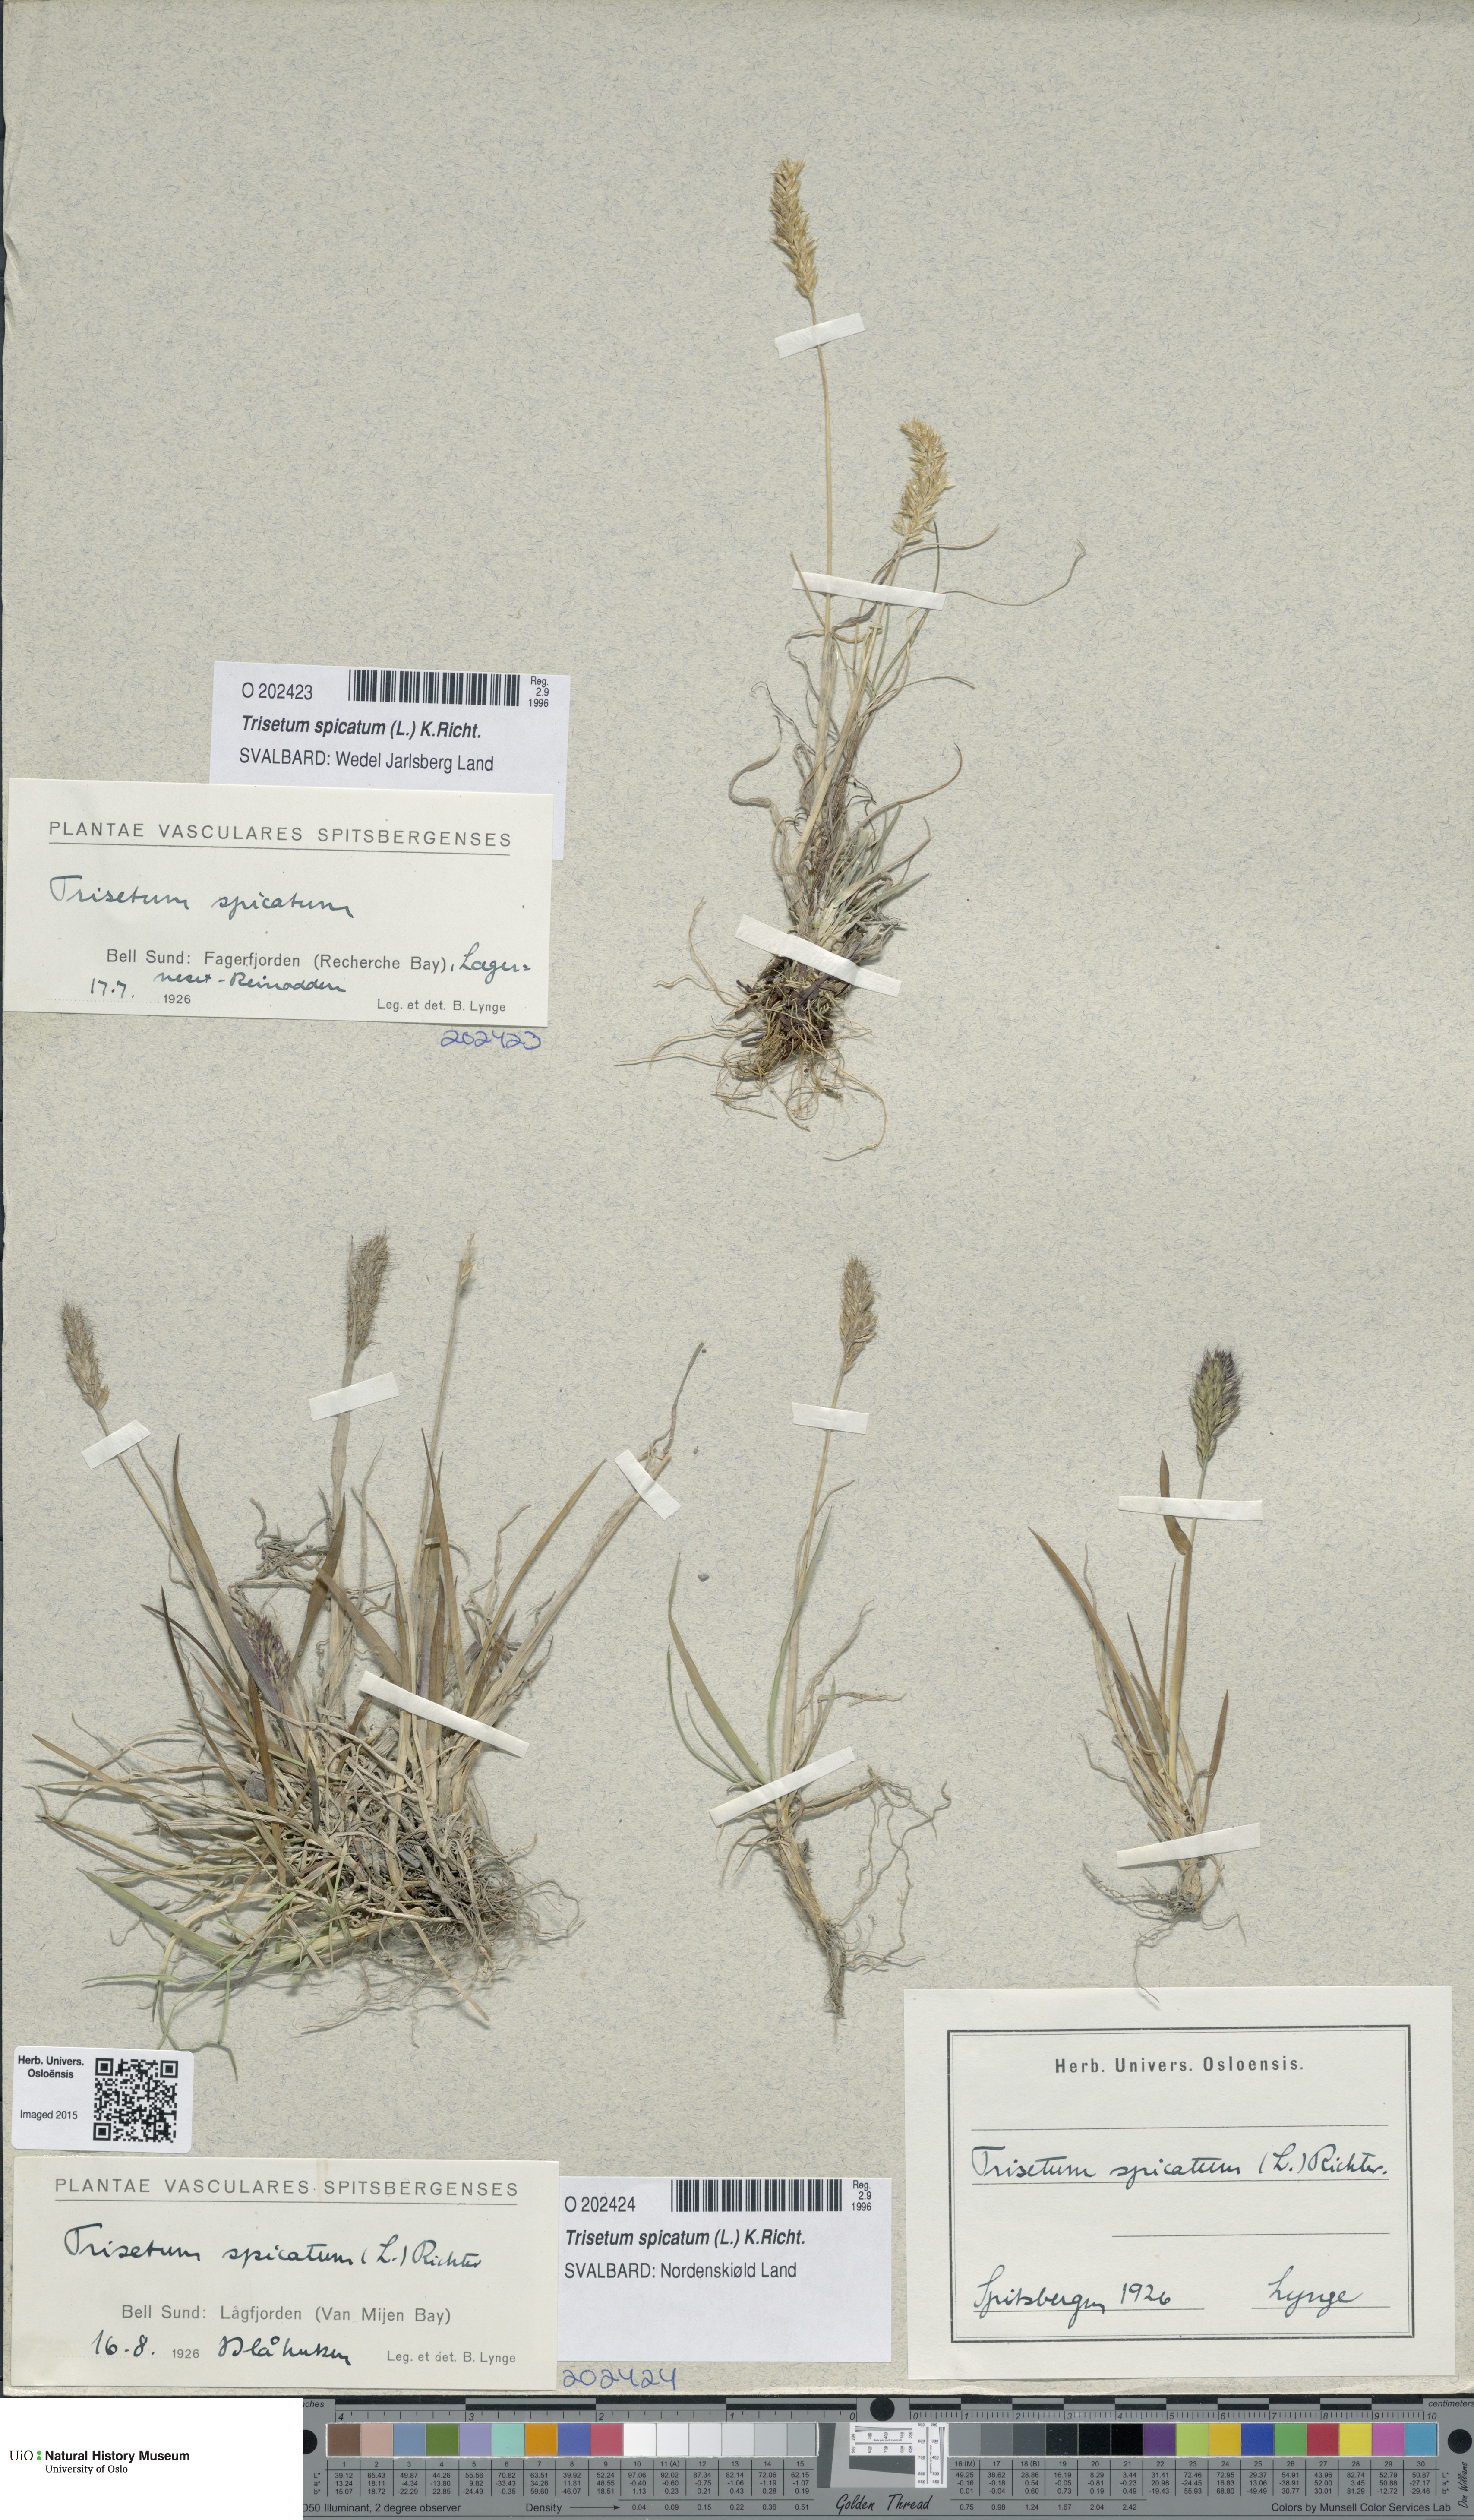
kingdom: Plantae
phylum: Tracheophyta
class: Liliopsida
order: Poales
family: Poaceae
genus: Koeleria
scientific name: Koeleria spicata
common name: Mountain trisetum
